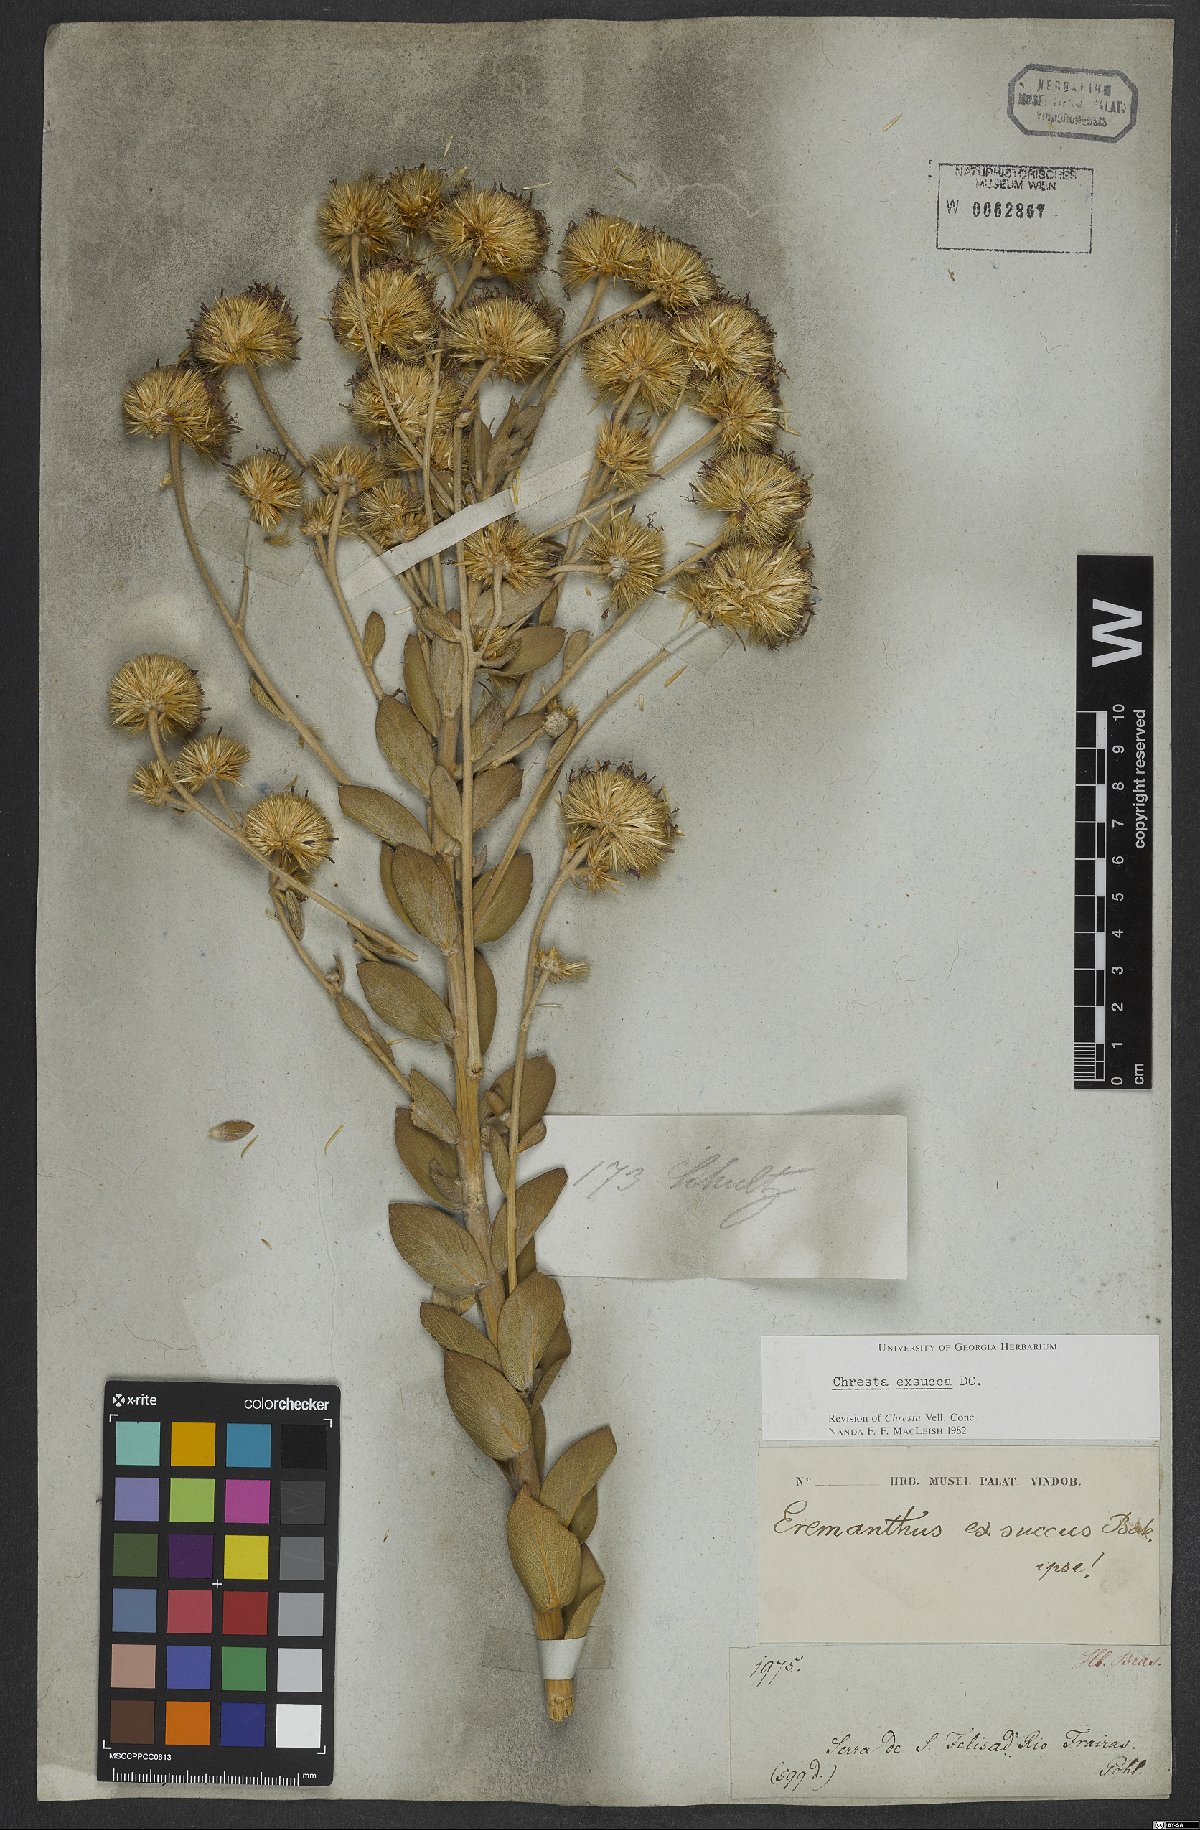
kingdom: Plantae
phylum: Tracheophyta
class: Magnoliopsida
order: Asterales
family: Asteraceae
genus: Chresta
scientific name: Chresta exsucca
